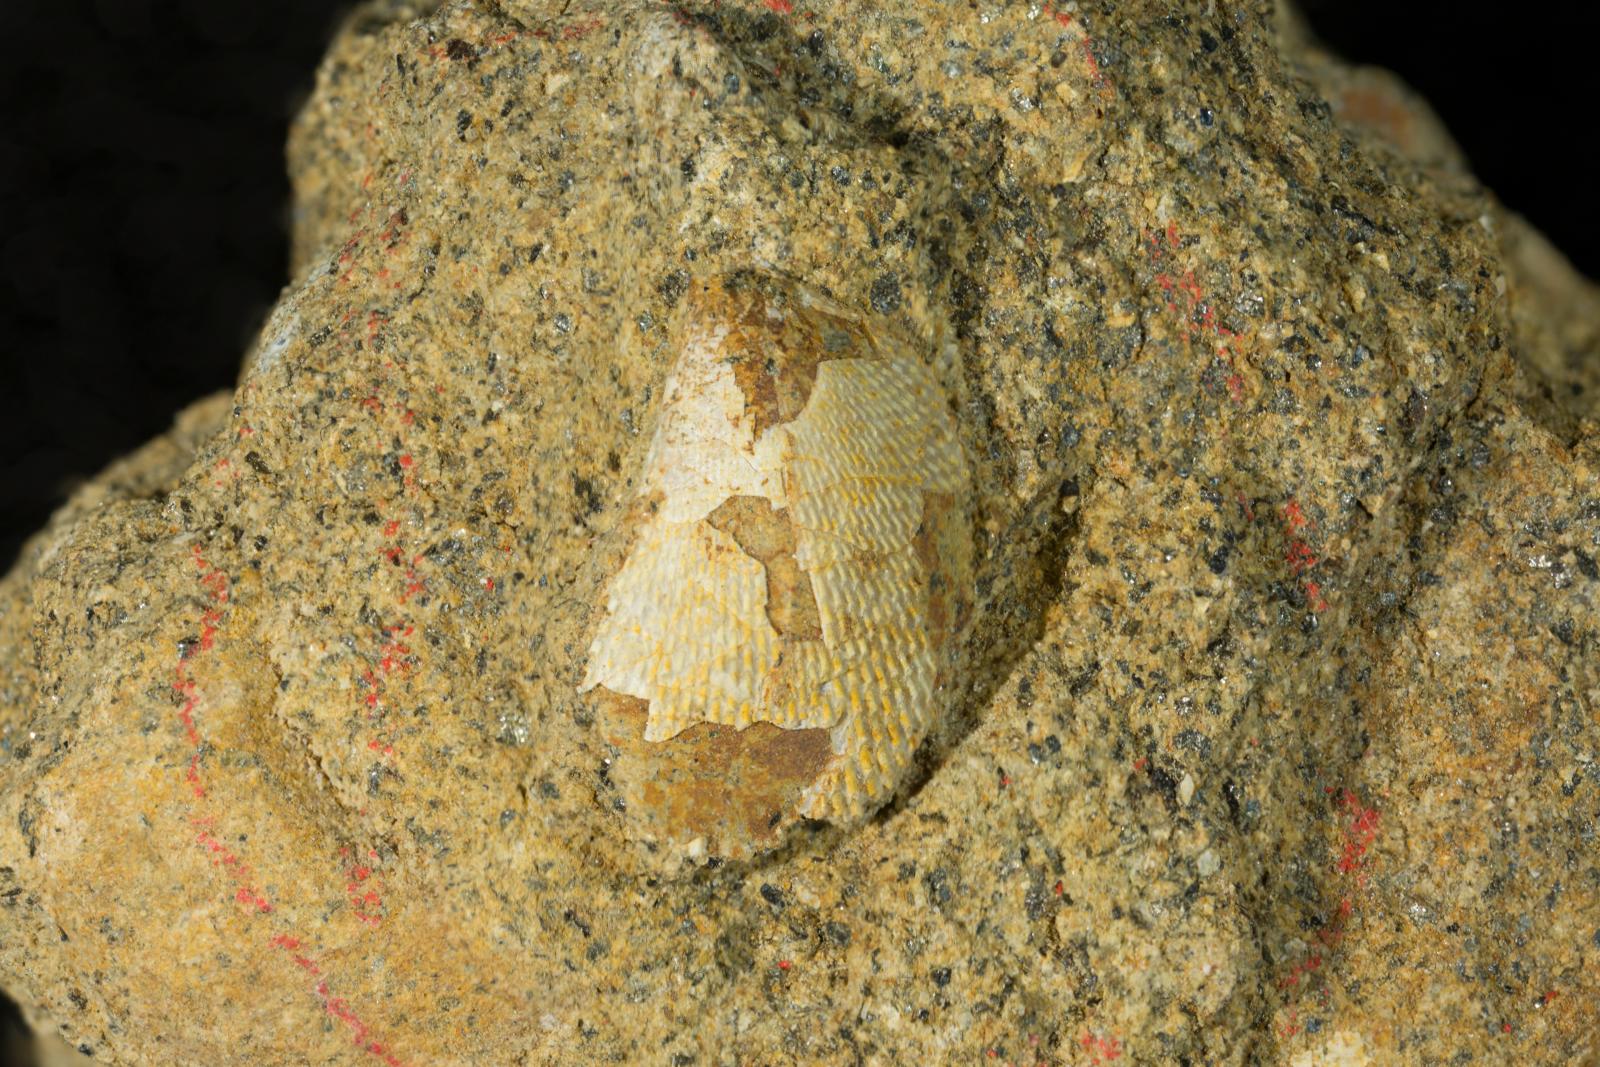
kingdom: Animalia
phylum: Mollusca
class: Bivalvia
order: Limida
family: Limidae
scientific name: Limidae
